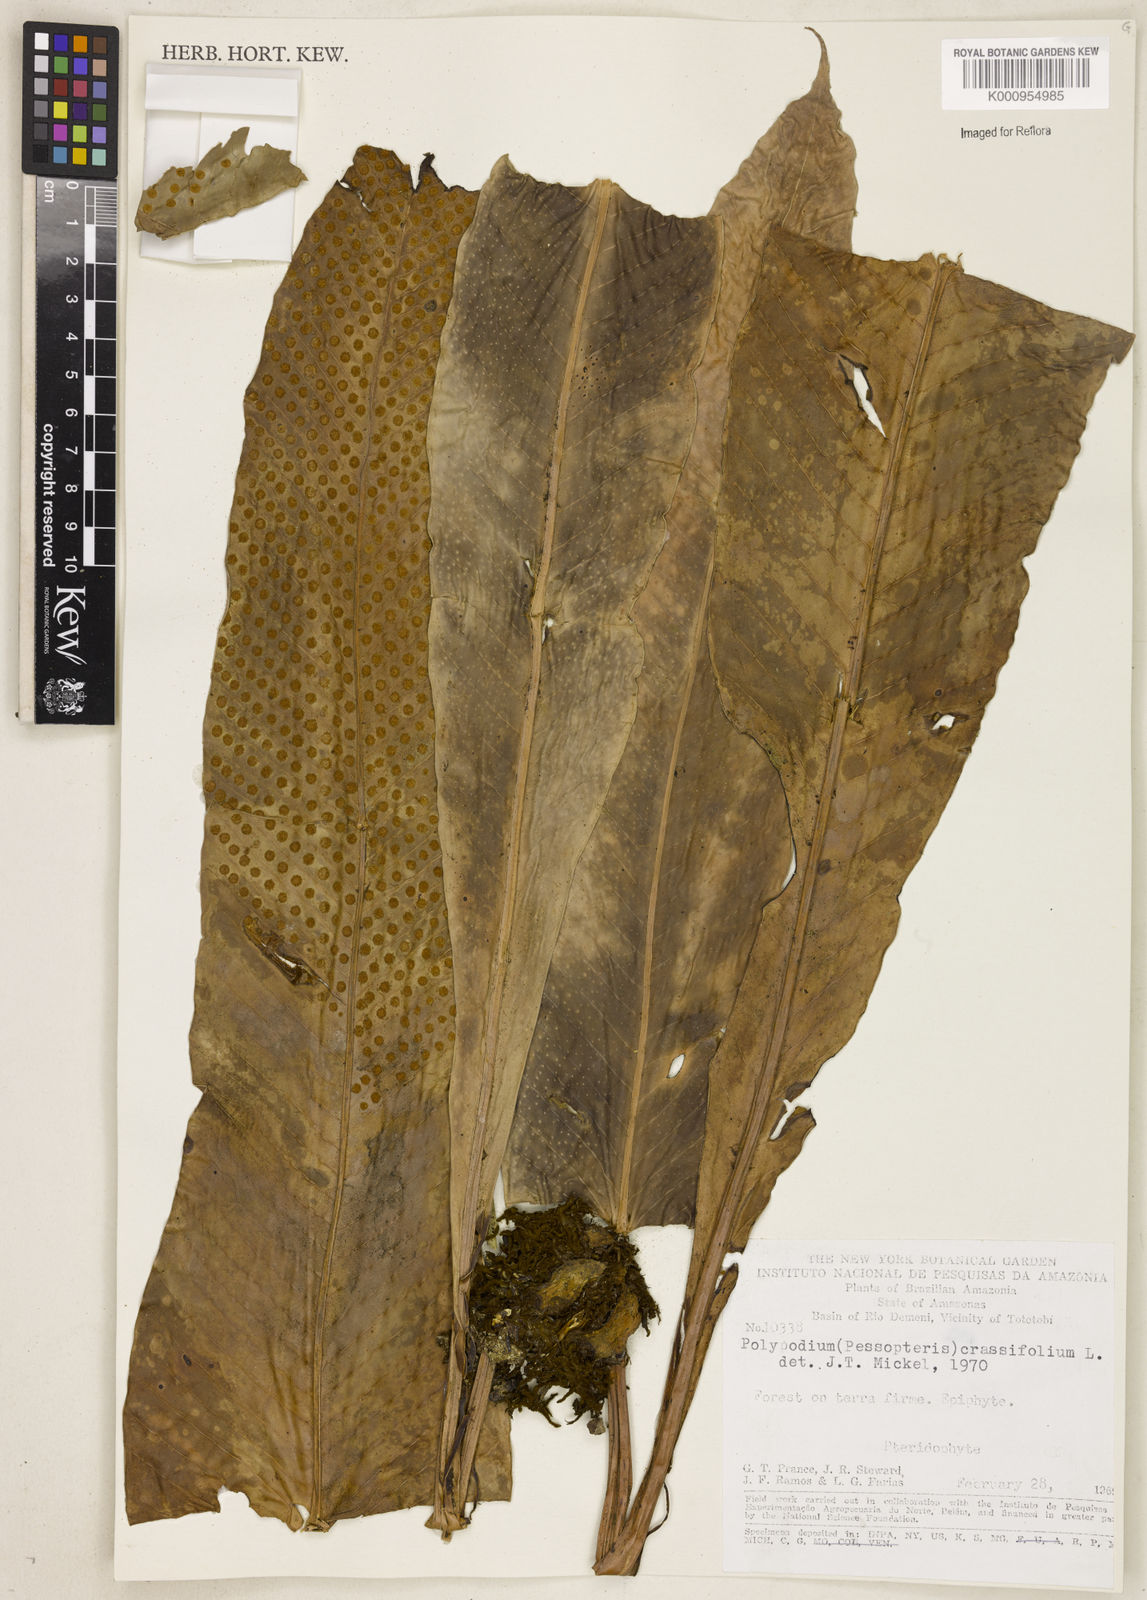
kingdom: Plantae
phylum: Tracheophyta
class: Polypodiopsida
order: Polypodiales
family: Polypodiaceae
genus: Niphidium
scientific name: Niphidium crassifolium
